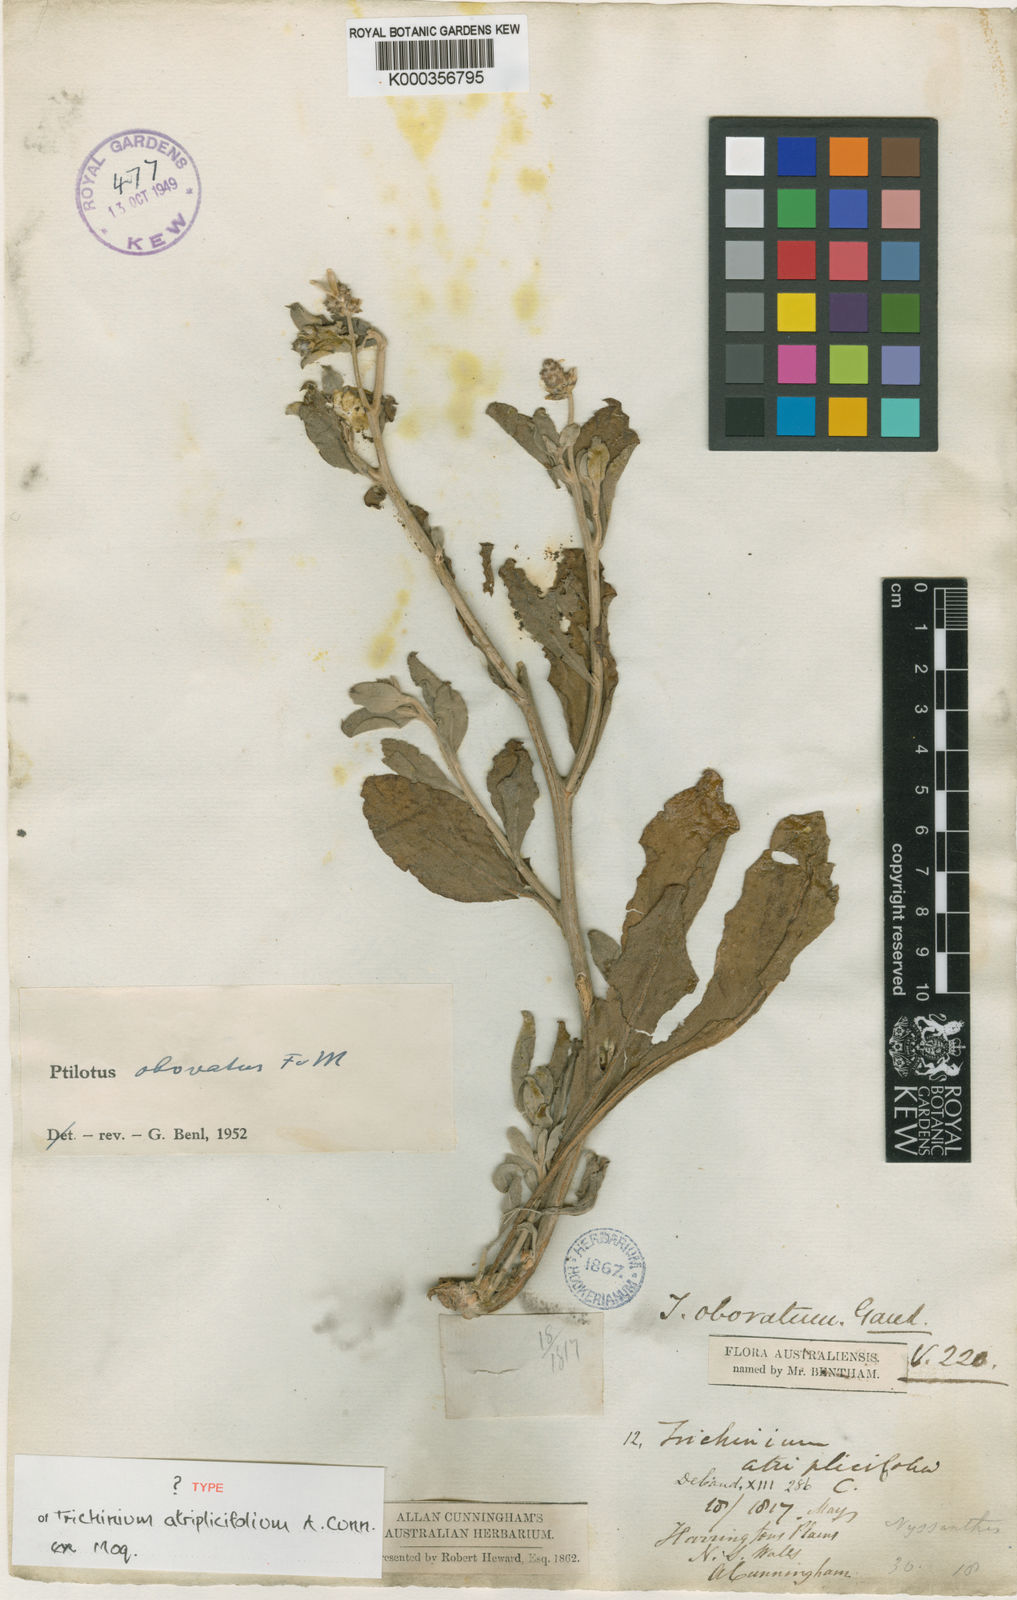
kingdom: Plantae
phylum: Tracheophyta
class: Magnoliopsida
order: Caryophyllales
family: Amaranthaceae
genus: Ptilotus
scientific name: Ptilotus obovatus
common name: Cottonbush
